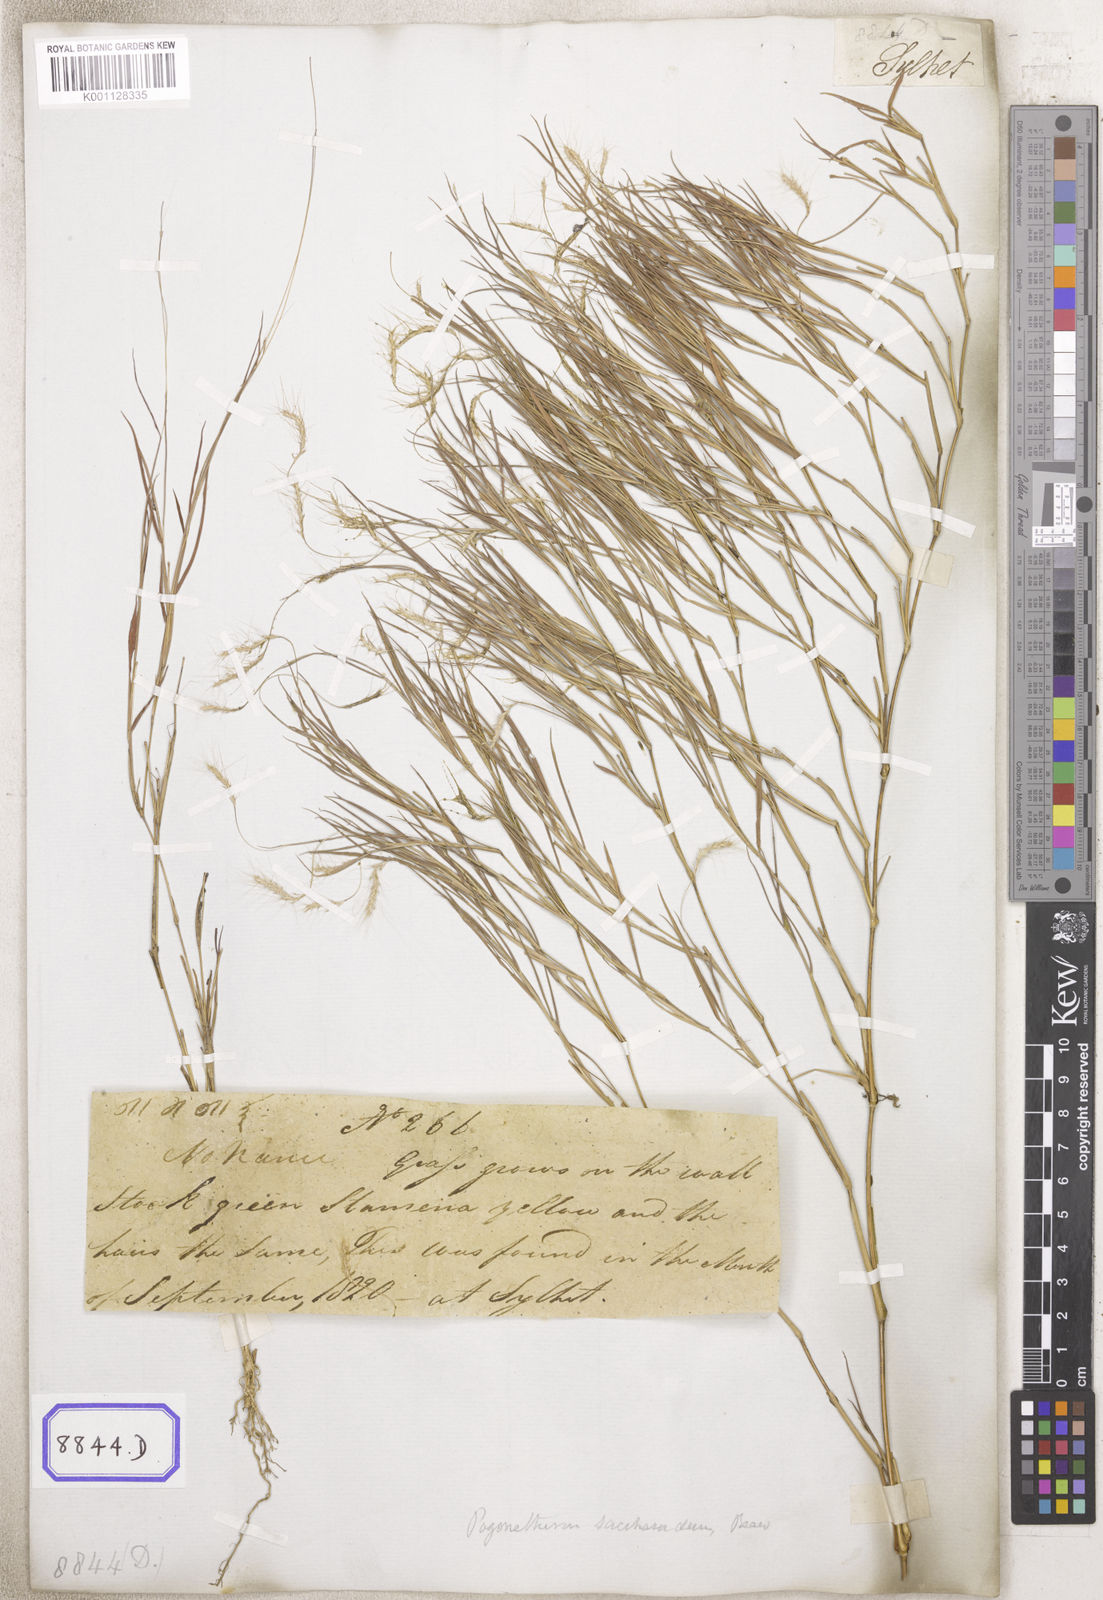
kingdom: Plantae
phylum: Tracheophyta
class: Liliopsida
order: Poales
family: Poaceae
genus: Pogonatherum
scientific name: Pogonatherum paniceum
